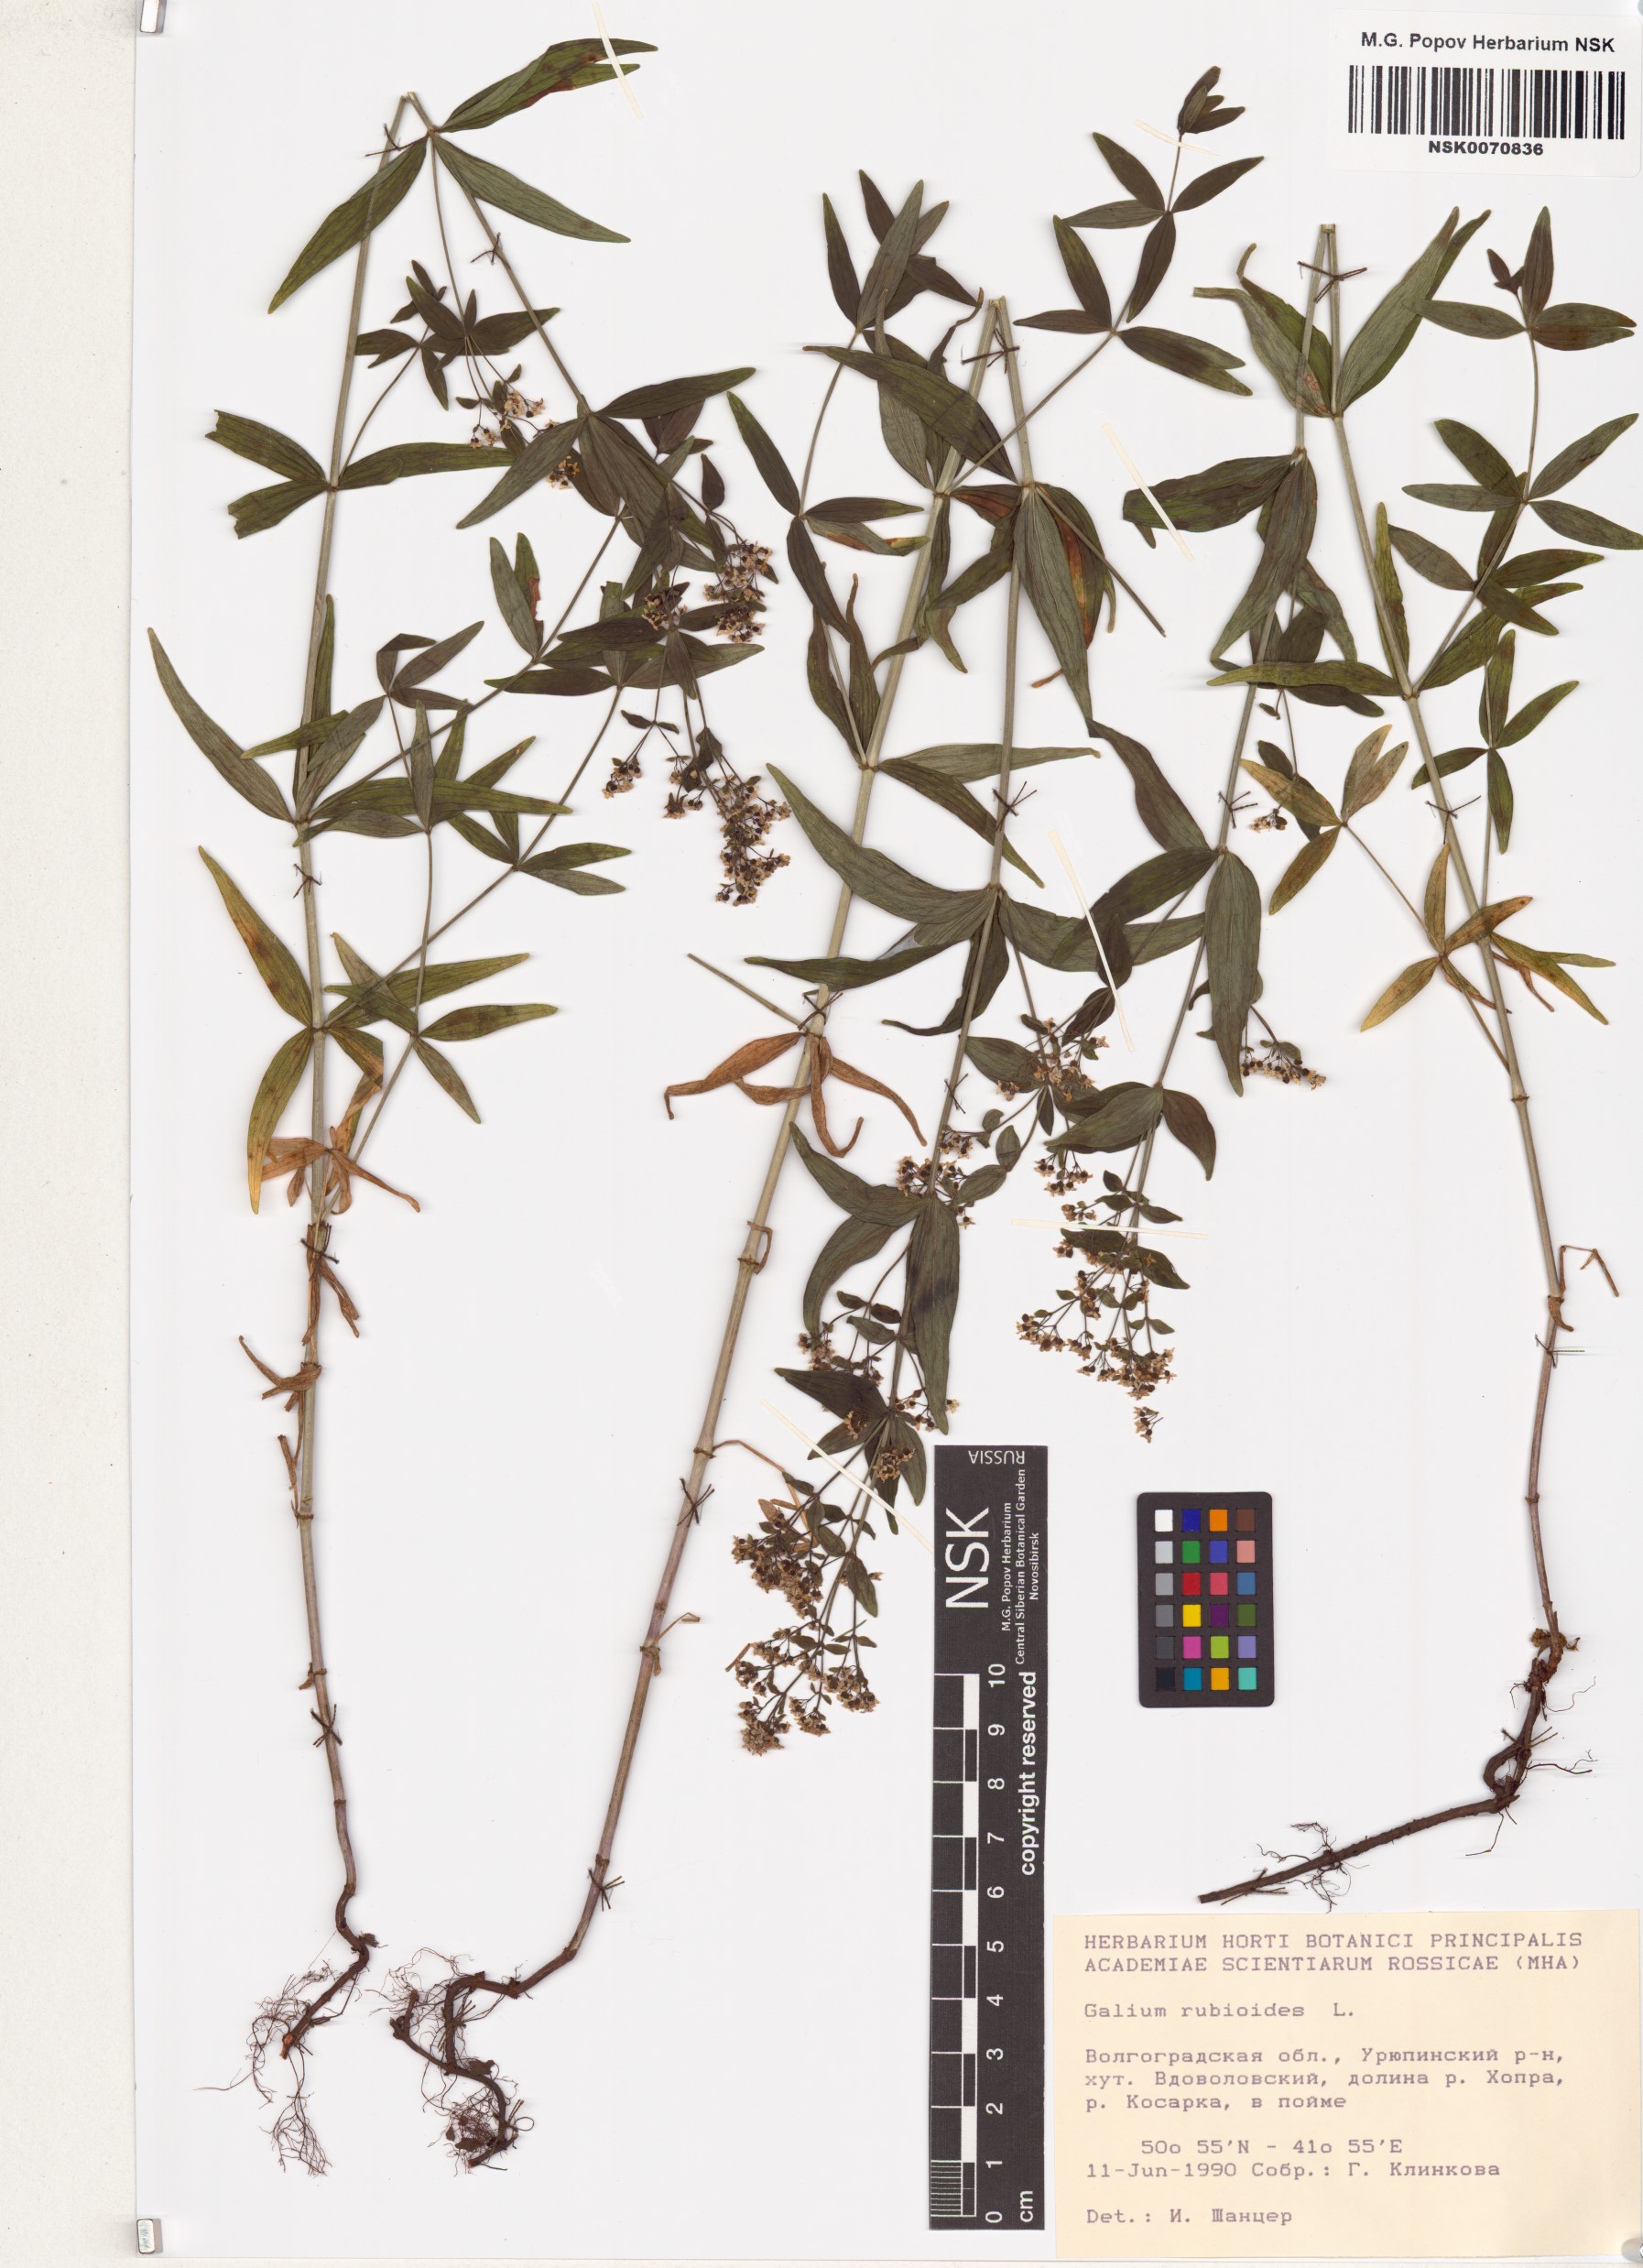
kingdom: Plantae
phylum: Tracheophyta
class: Magnoliopsida
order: Gentianales
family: Rubiaceae
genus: Galium
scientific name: Galium rubioides
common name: European bedstraw
